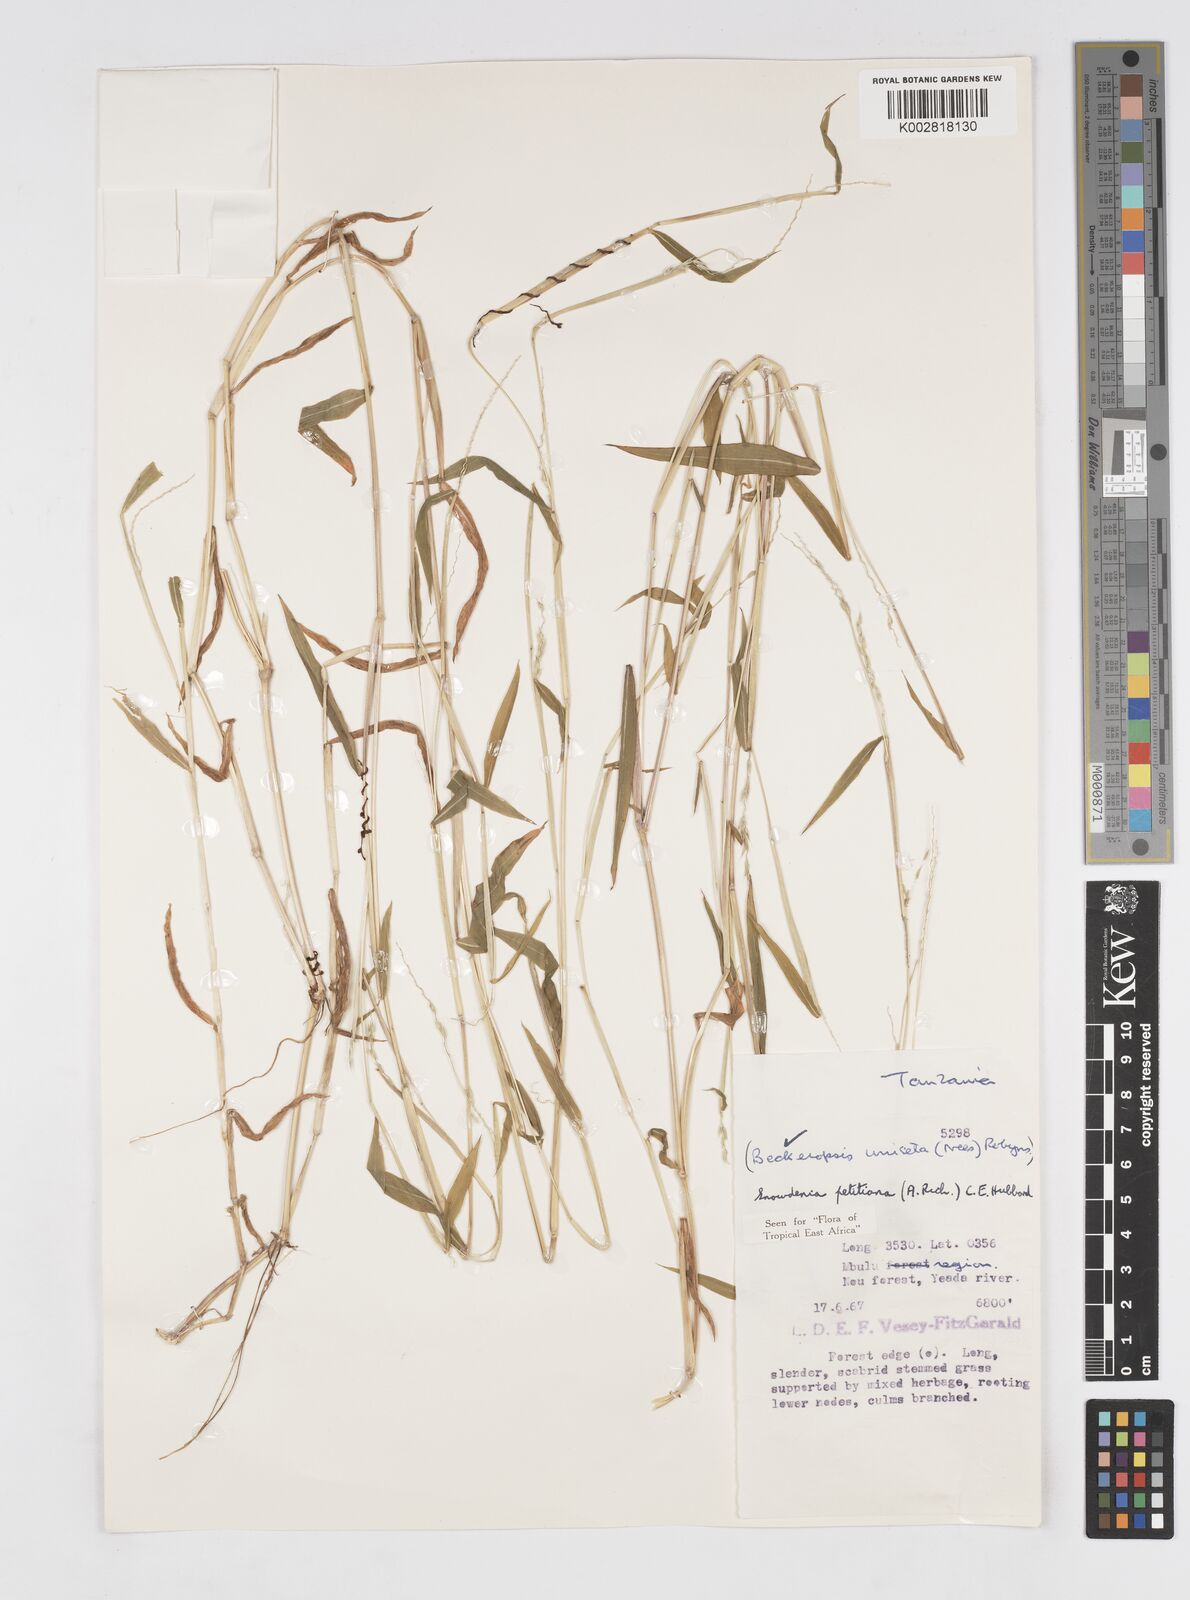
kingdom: Plantae
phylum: Tracheophyta
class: Liliopsida
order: Poales
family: Poaceae
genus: Snowdenia
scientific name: Snowdenia petitiana
